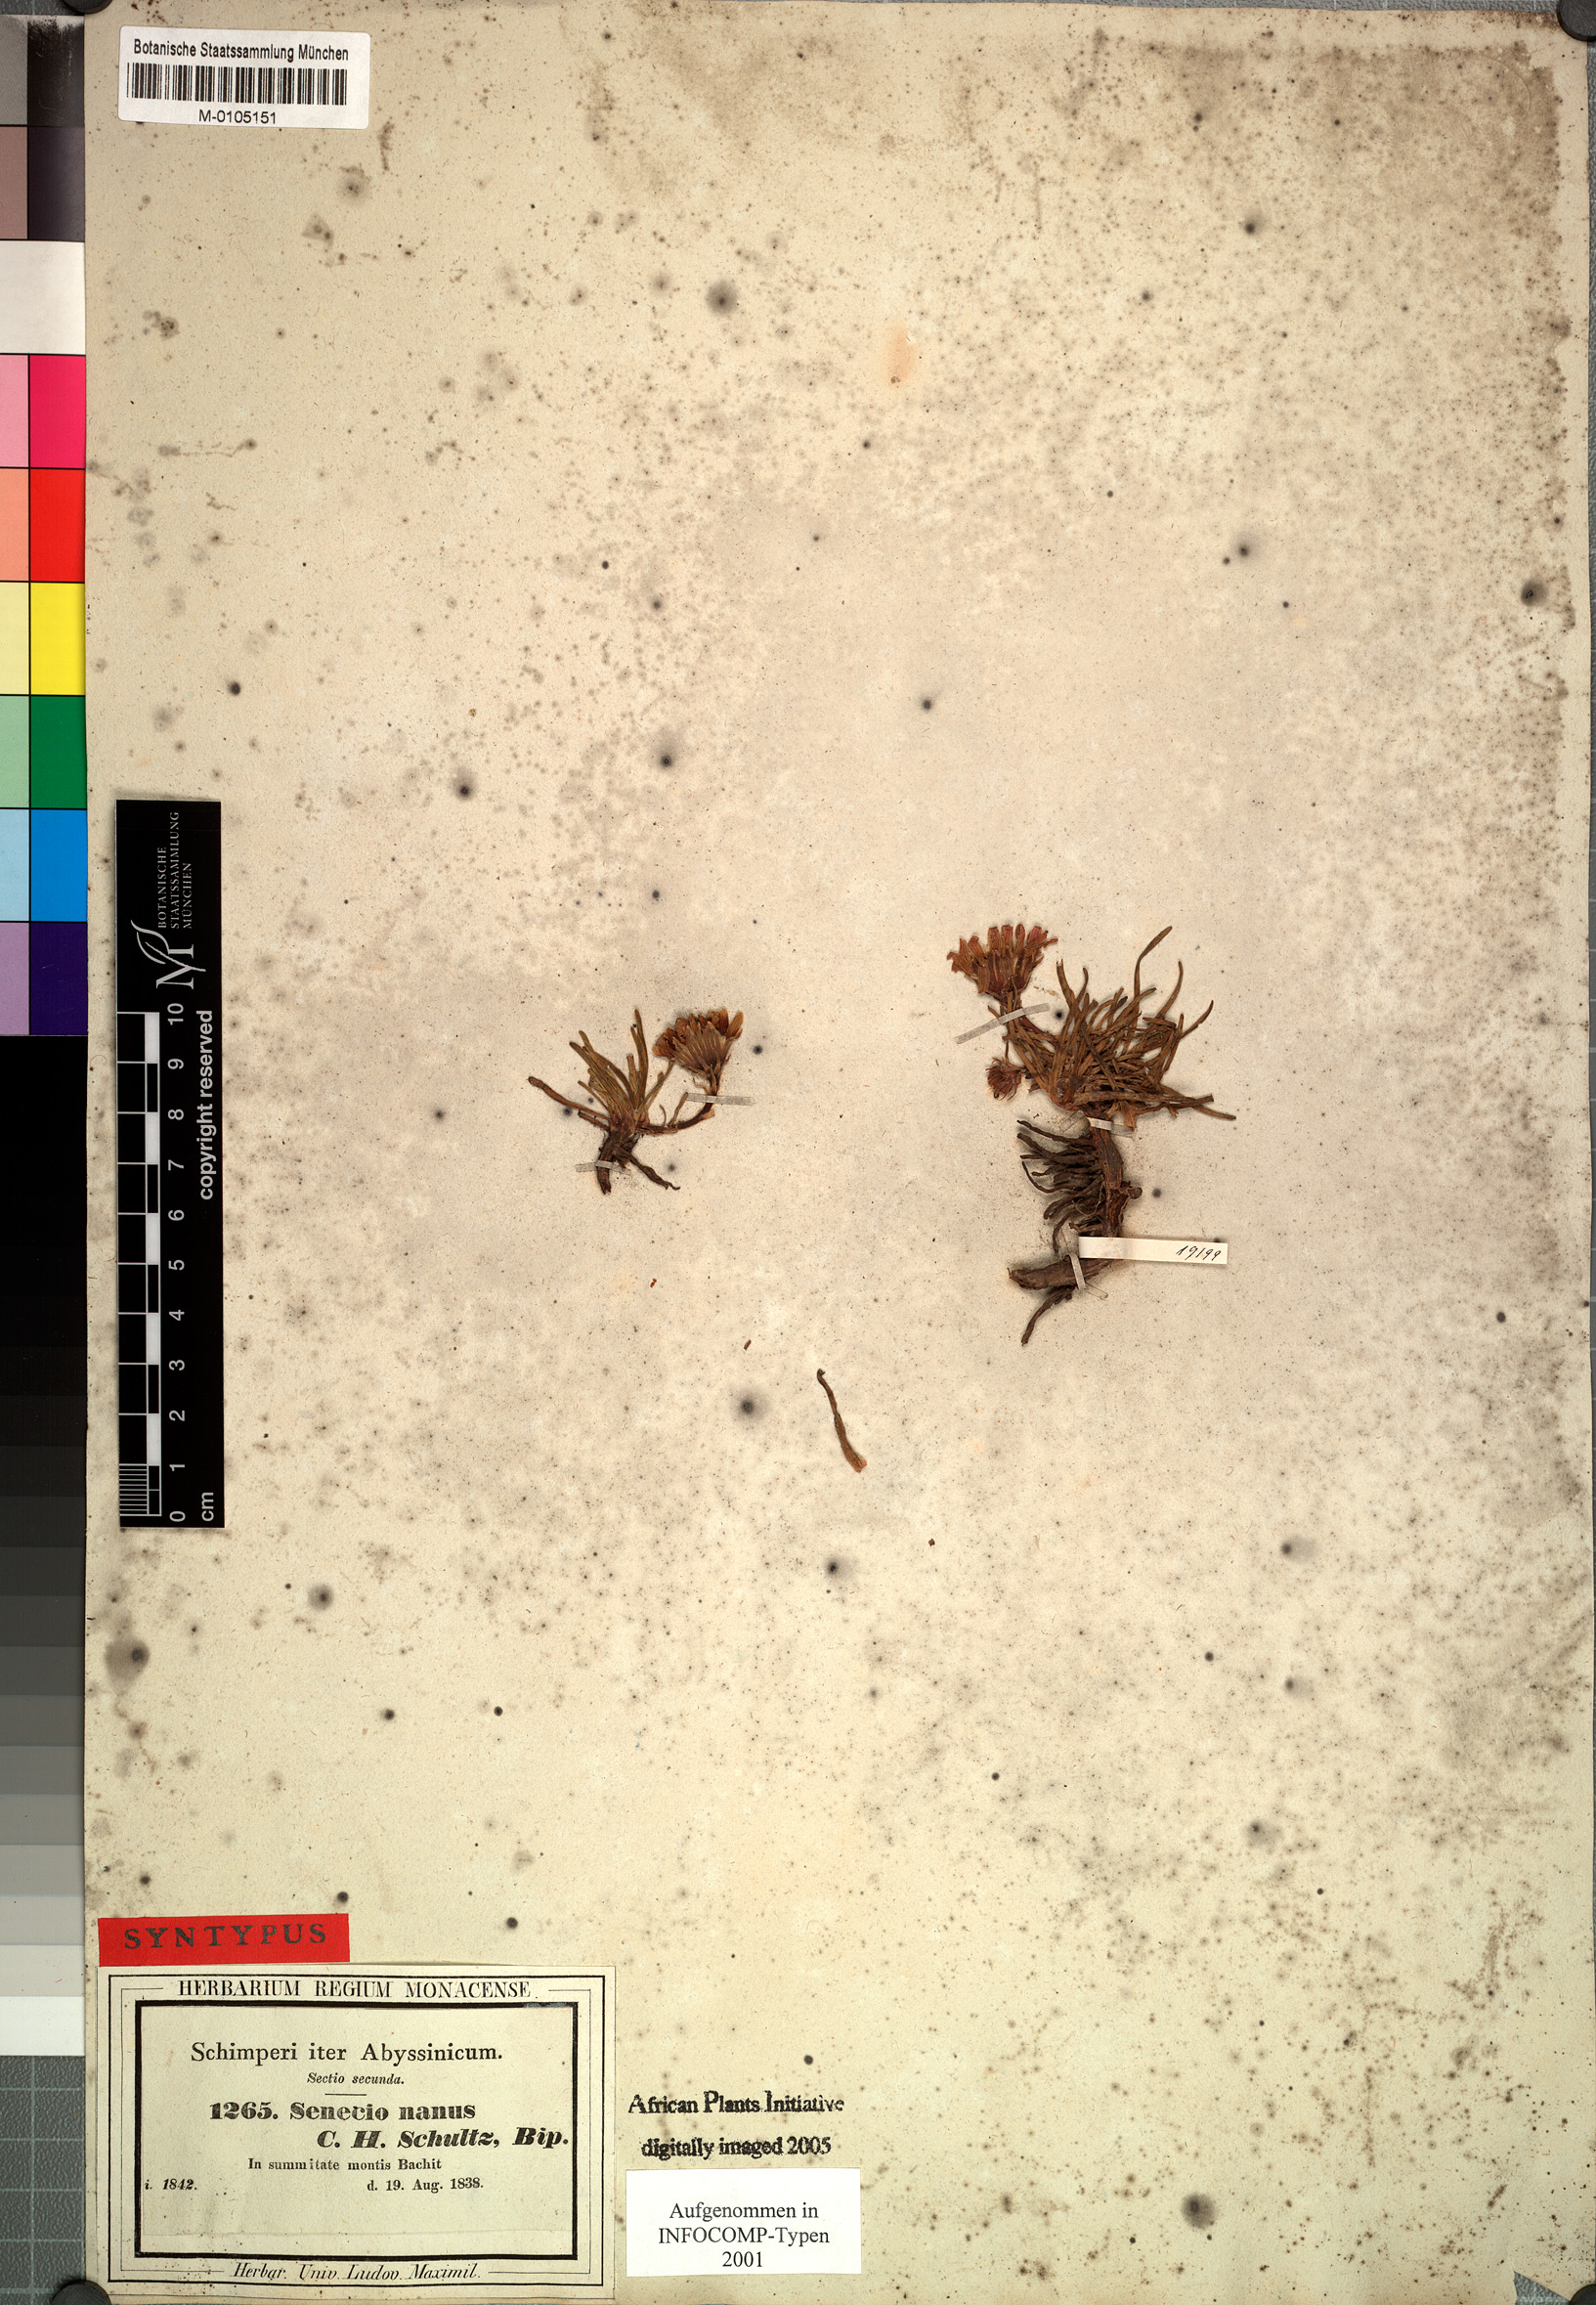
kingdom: Plantae
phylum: Tracheophyta
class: Magnoliopsida
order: Asterales
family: Asteraceae
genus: Senecio
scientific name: Senecio nanus
